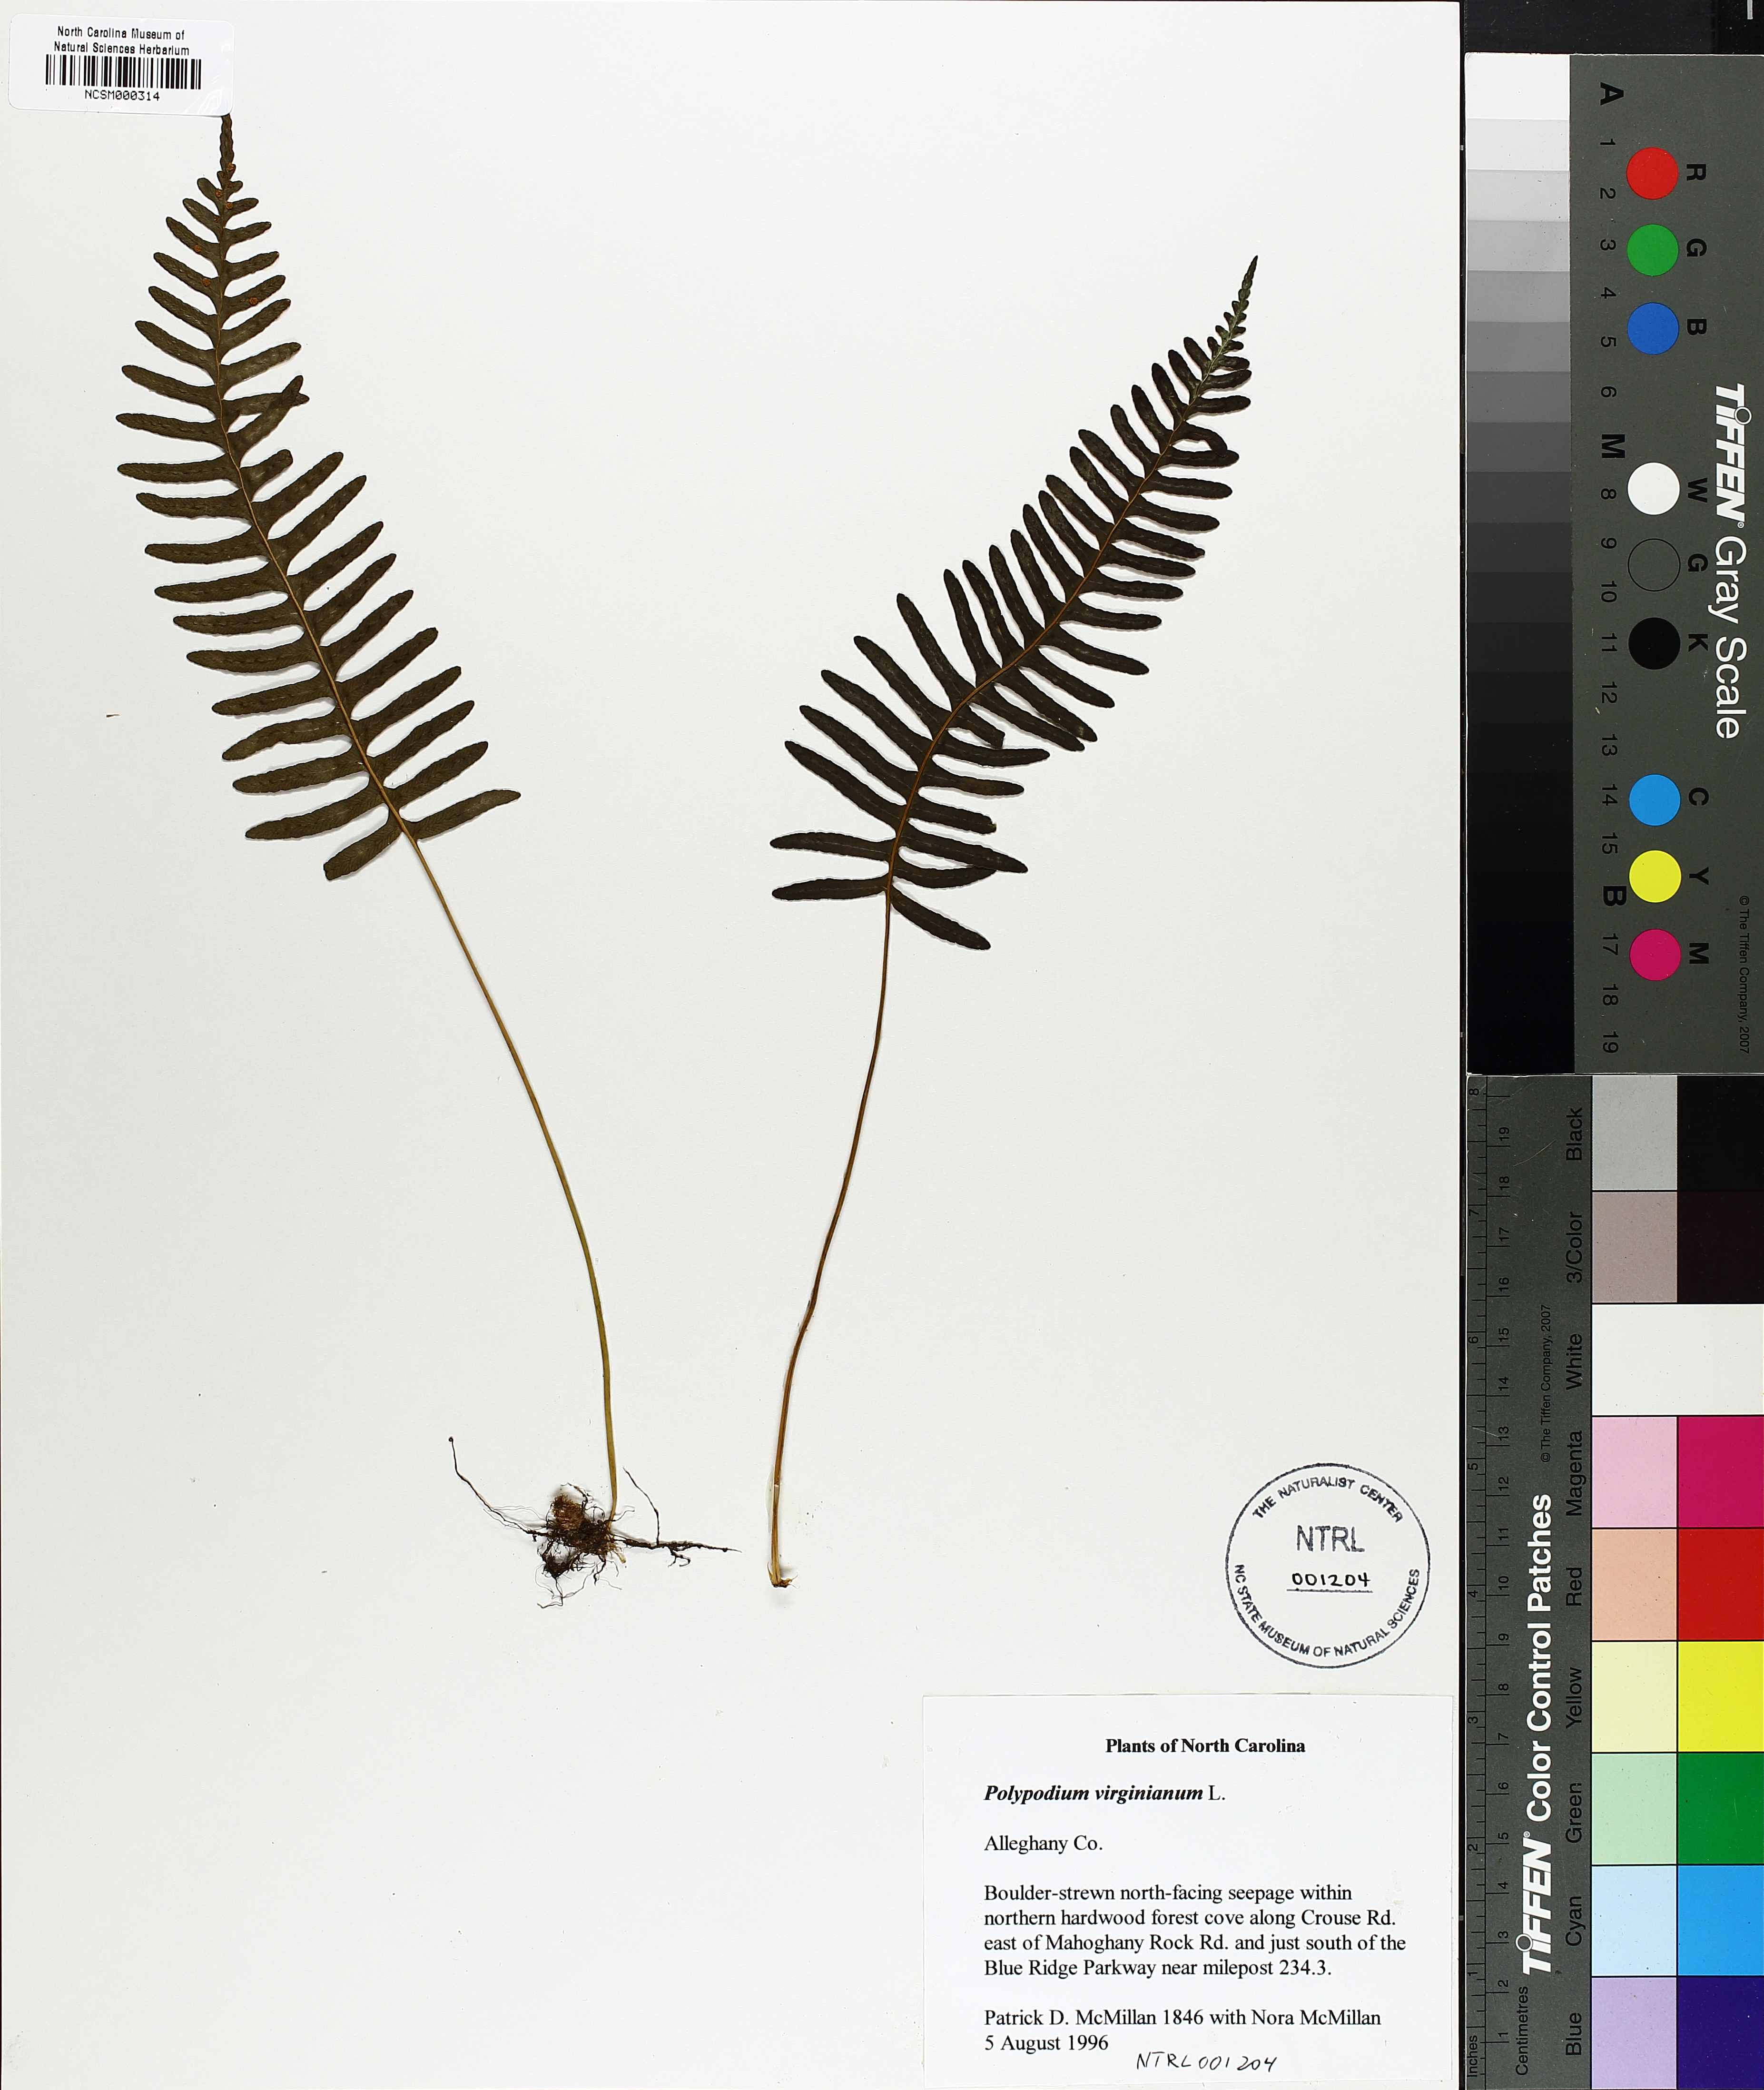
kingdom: Plantae
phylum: Tracheophyta
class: Polypodiopsida
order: Polypodiales
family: Polypodiaceae
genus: Polypodium
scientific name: Polypodium virginianum
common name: American wall fern
